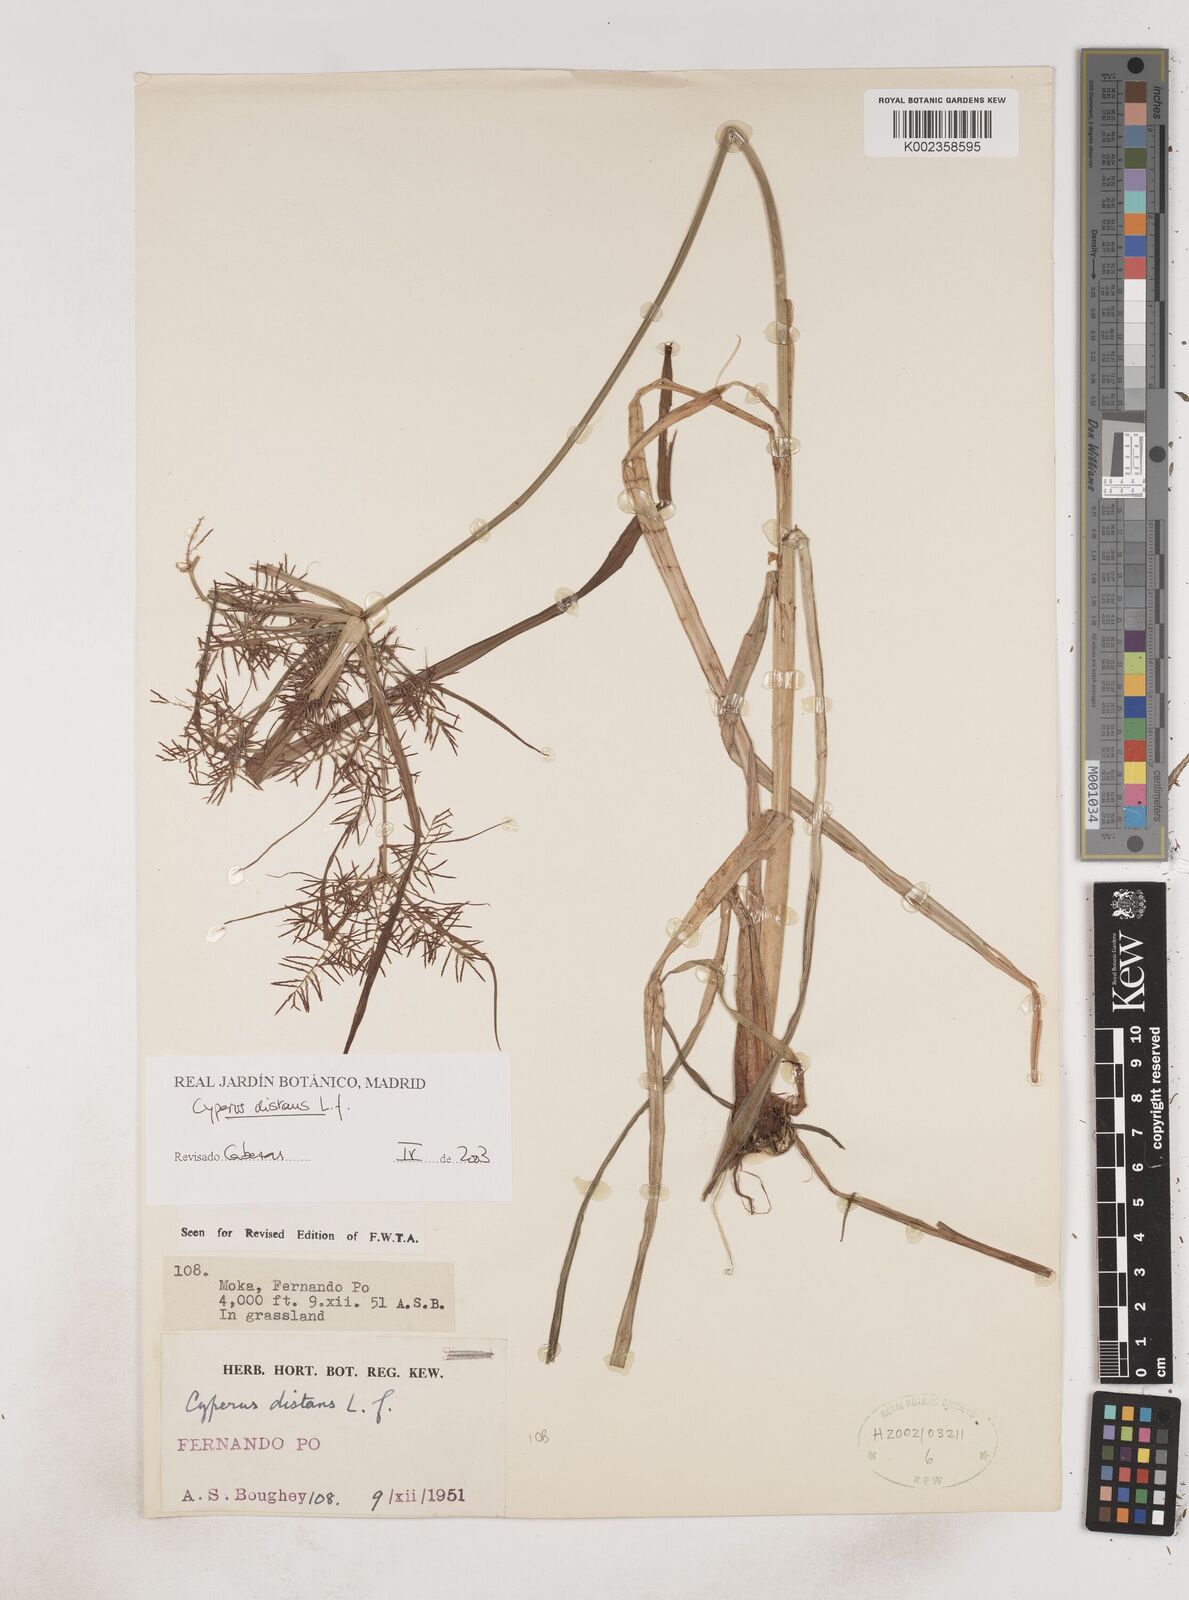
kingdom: Plantae
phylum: Tracheophyta
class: Liliopsida
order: Poales
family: Cyperaceae
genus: Cyperus
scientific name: Cyperus distans
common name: Slender cyperus
